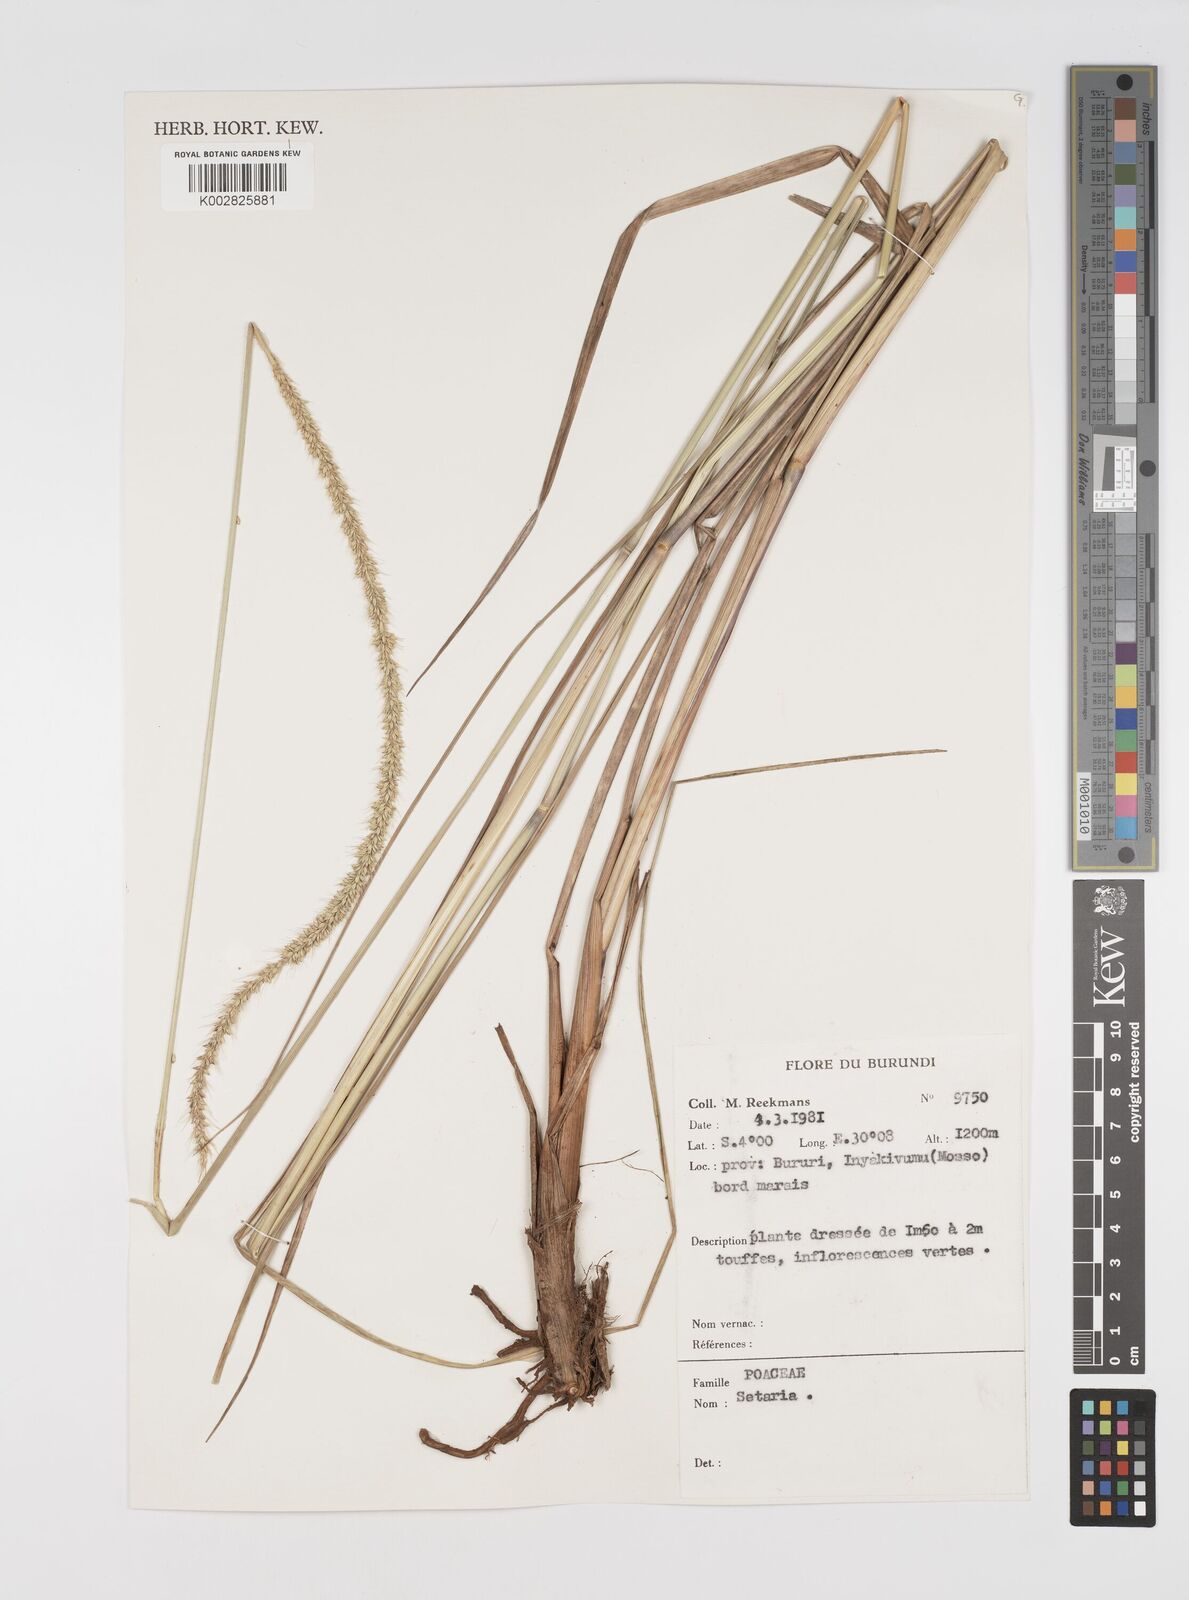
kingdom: Plantae
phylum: Tracheophyta
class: Liliopsida
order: Poales
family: Poaceae
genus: Setaria
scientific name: Setaria sphacelata
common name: African bristlegrass
